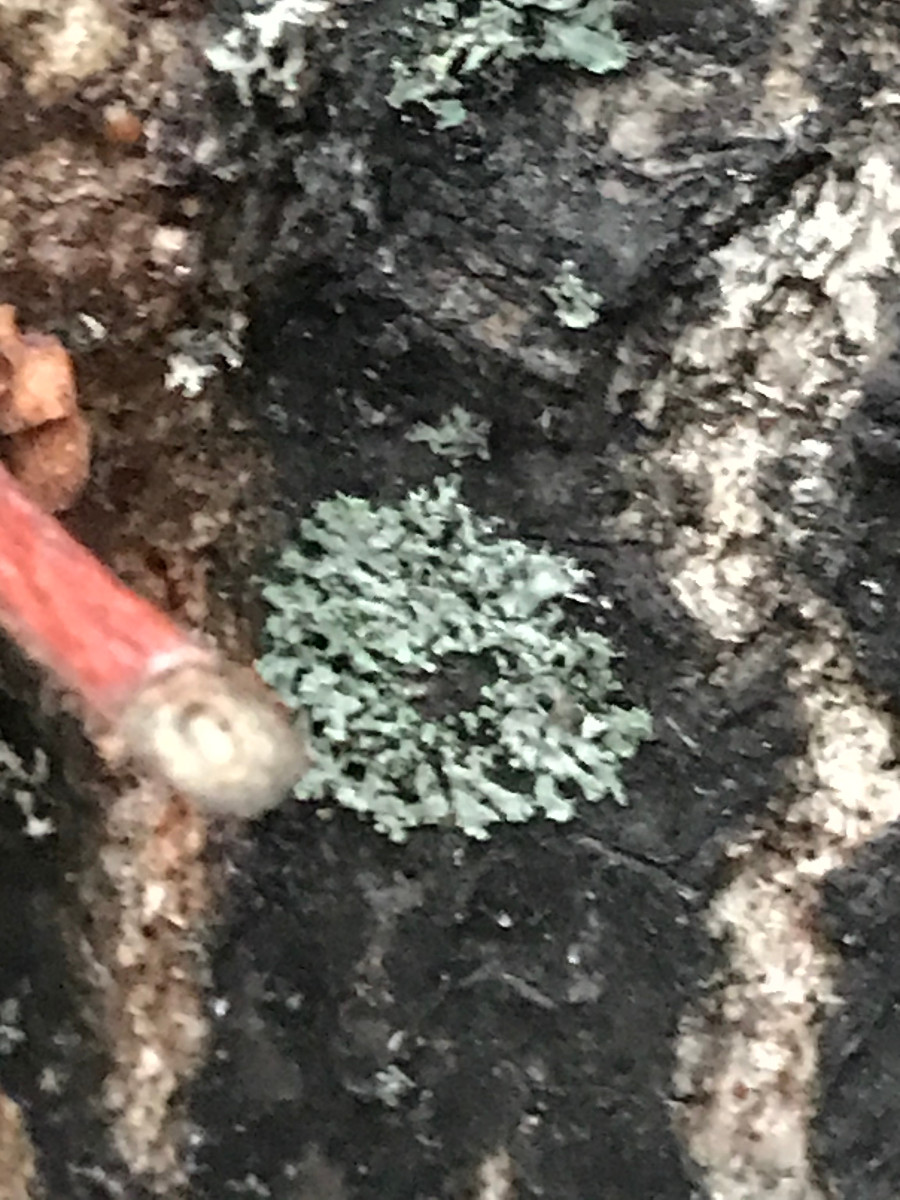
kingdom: Fungi
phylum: Ascomycota
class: Lecanoromycetes
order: Caliciales
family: Physciaceae
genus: Physcia
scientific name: Physcia tenella
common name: spæd rosetlav
